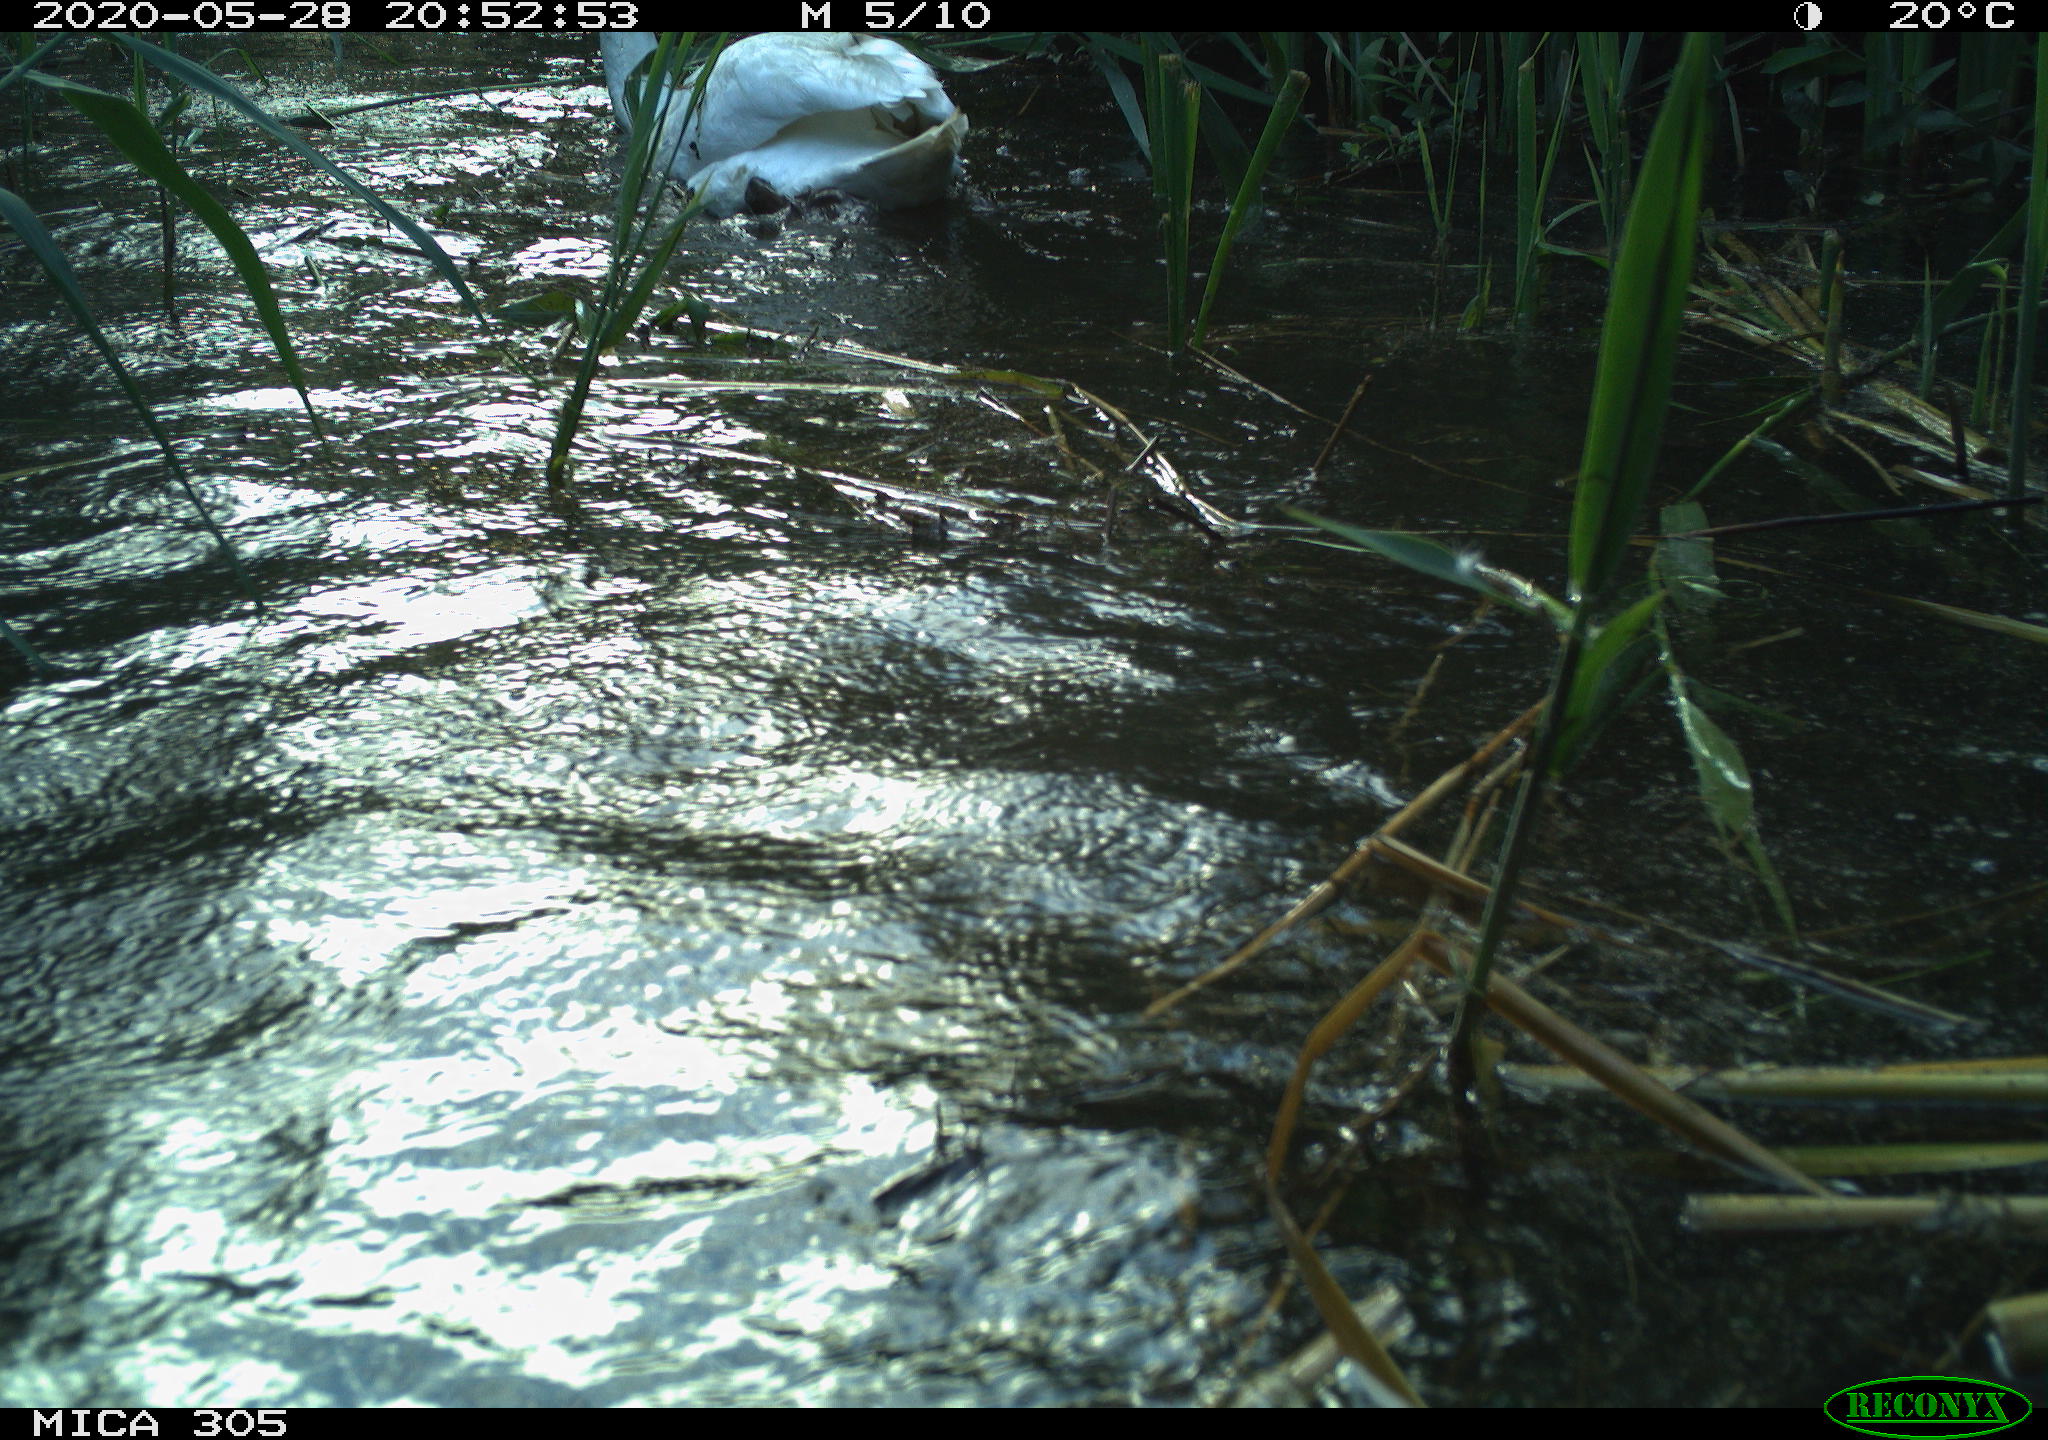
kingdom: Animalia
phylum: Chordata
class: Aves
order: Anseriformes
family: Anatidae
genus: Anser
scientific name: Anser anser
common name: Greylag goose
